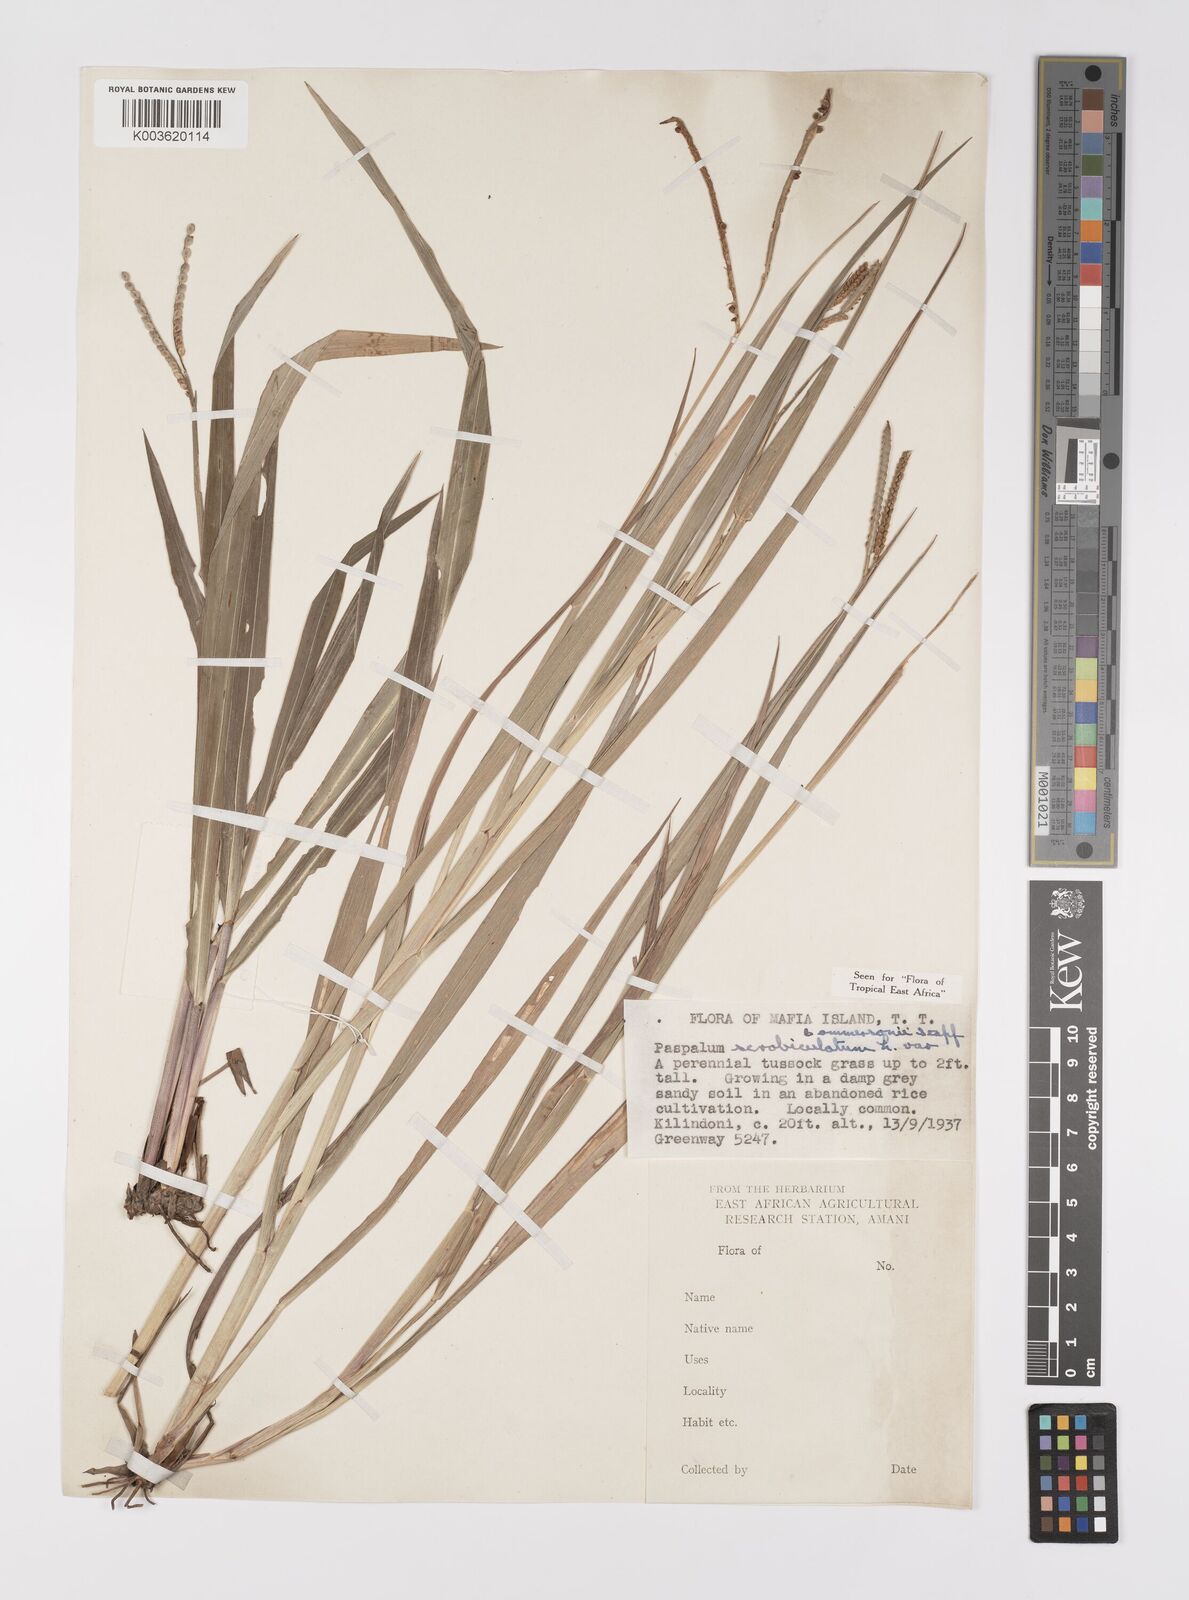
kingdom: Plantae
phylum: Tracheophyta
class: Liliopsida
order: Poales
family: Poaceae
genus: Paspalum
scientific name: Paspalum scrobiculatum
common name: Kodo millet
